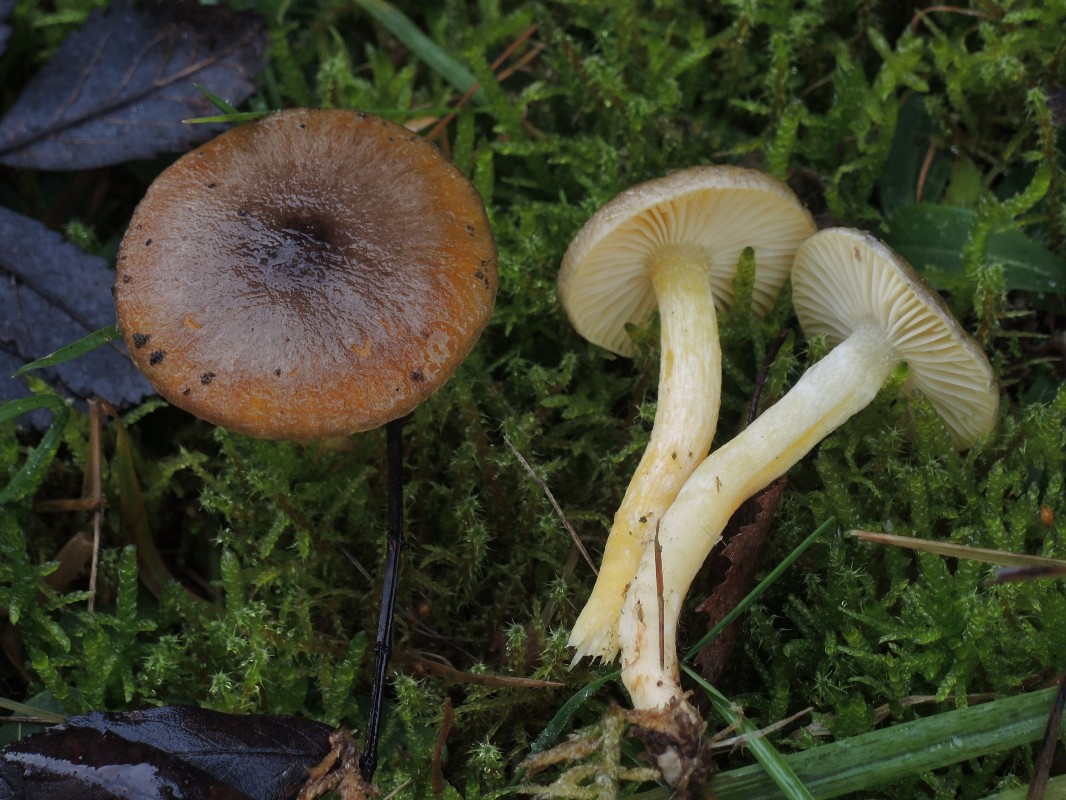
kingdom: Fungi
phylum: Basidiomycota
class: Agaricomycetes
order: Agaricales
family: Hygrophoraceae
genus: Hygrophorus
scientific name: Hygrophorus hypothejus
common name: frost-sneglehat
